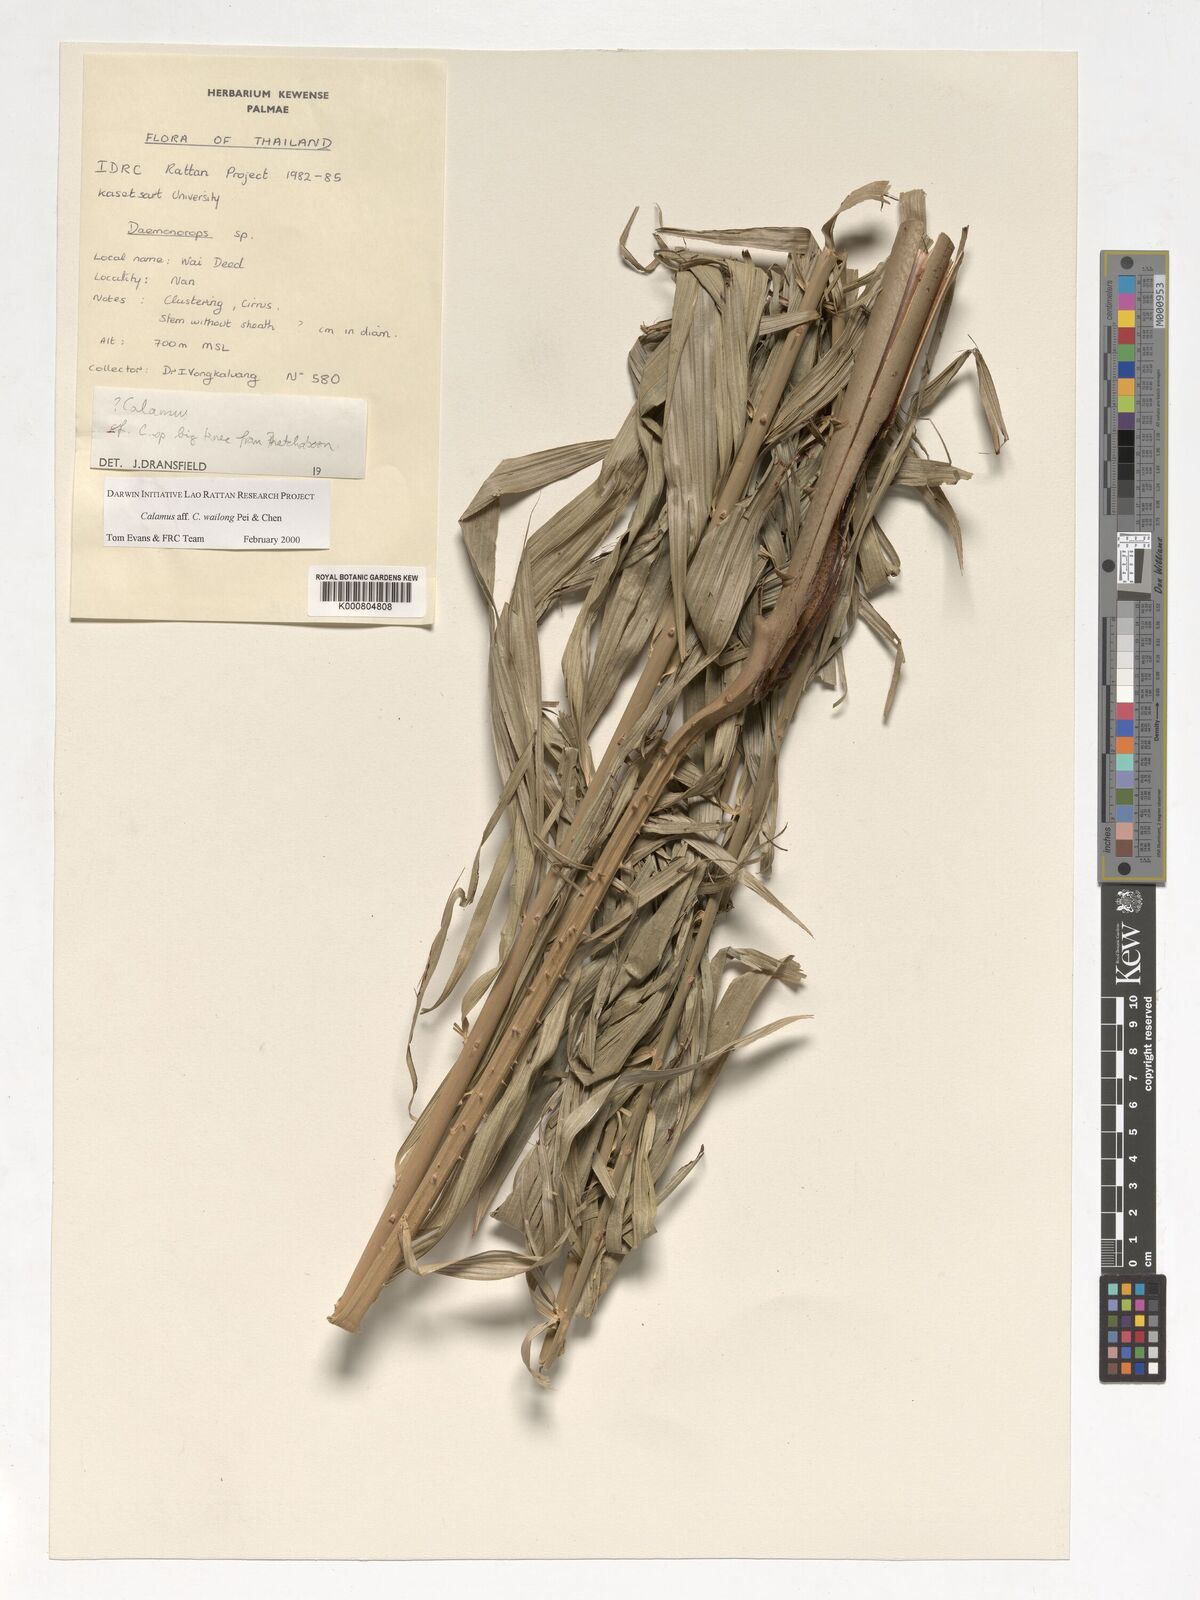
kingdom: Plantae
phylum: Tracheophyta
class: Liliopsida
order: Arecales
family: Arecaceae
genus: Calamus
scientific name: Calamus inermis
